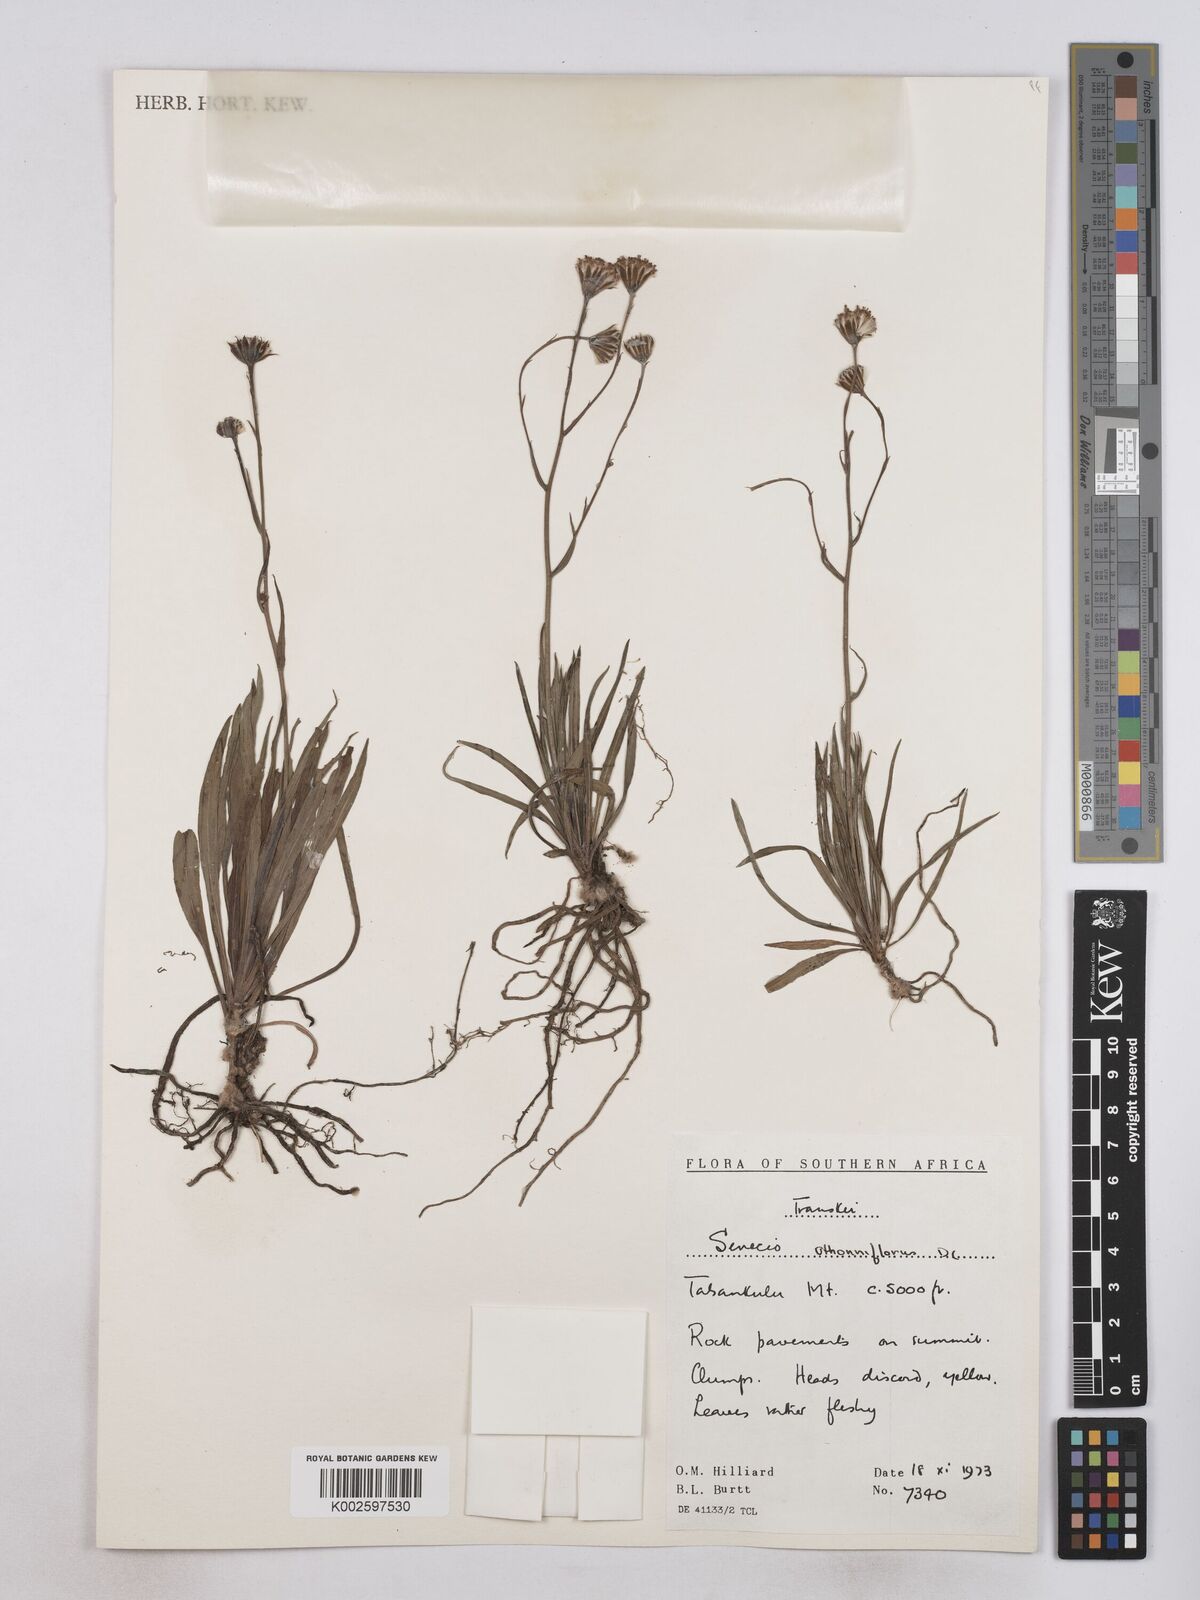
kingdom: Plantae
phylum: Tracheophyta
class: Magnoliopsida
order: Asterales
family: Asteraceae
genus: Senecio
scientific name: Senecio othonniflorus
